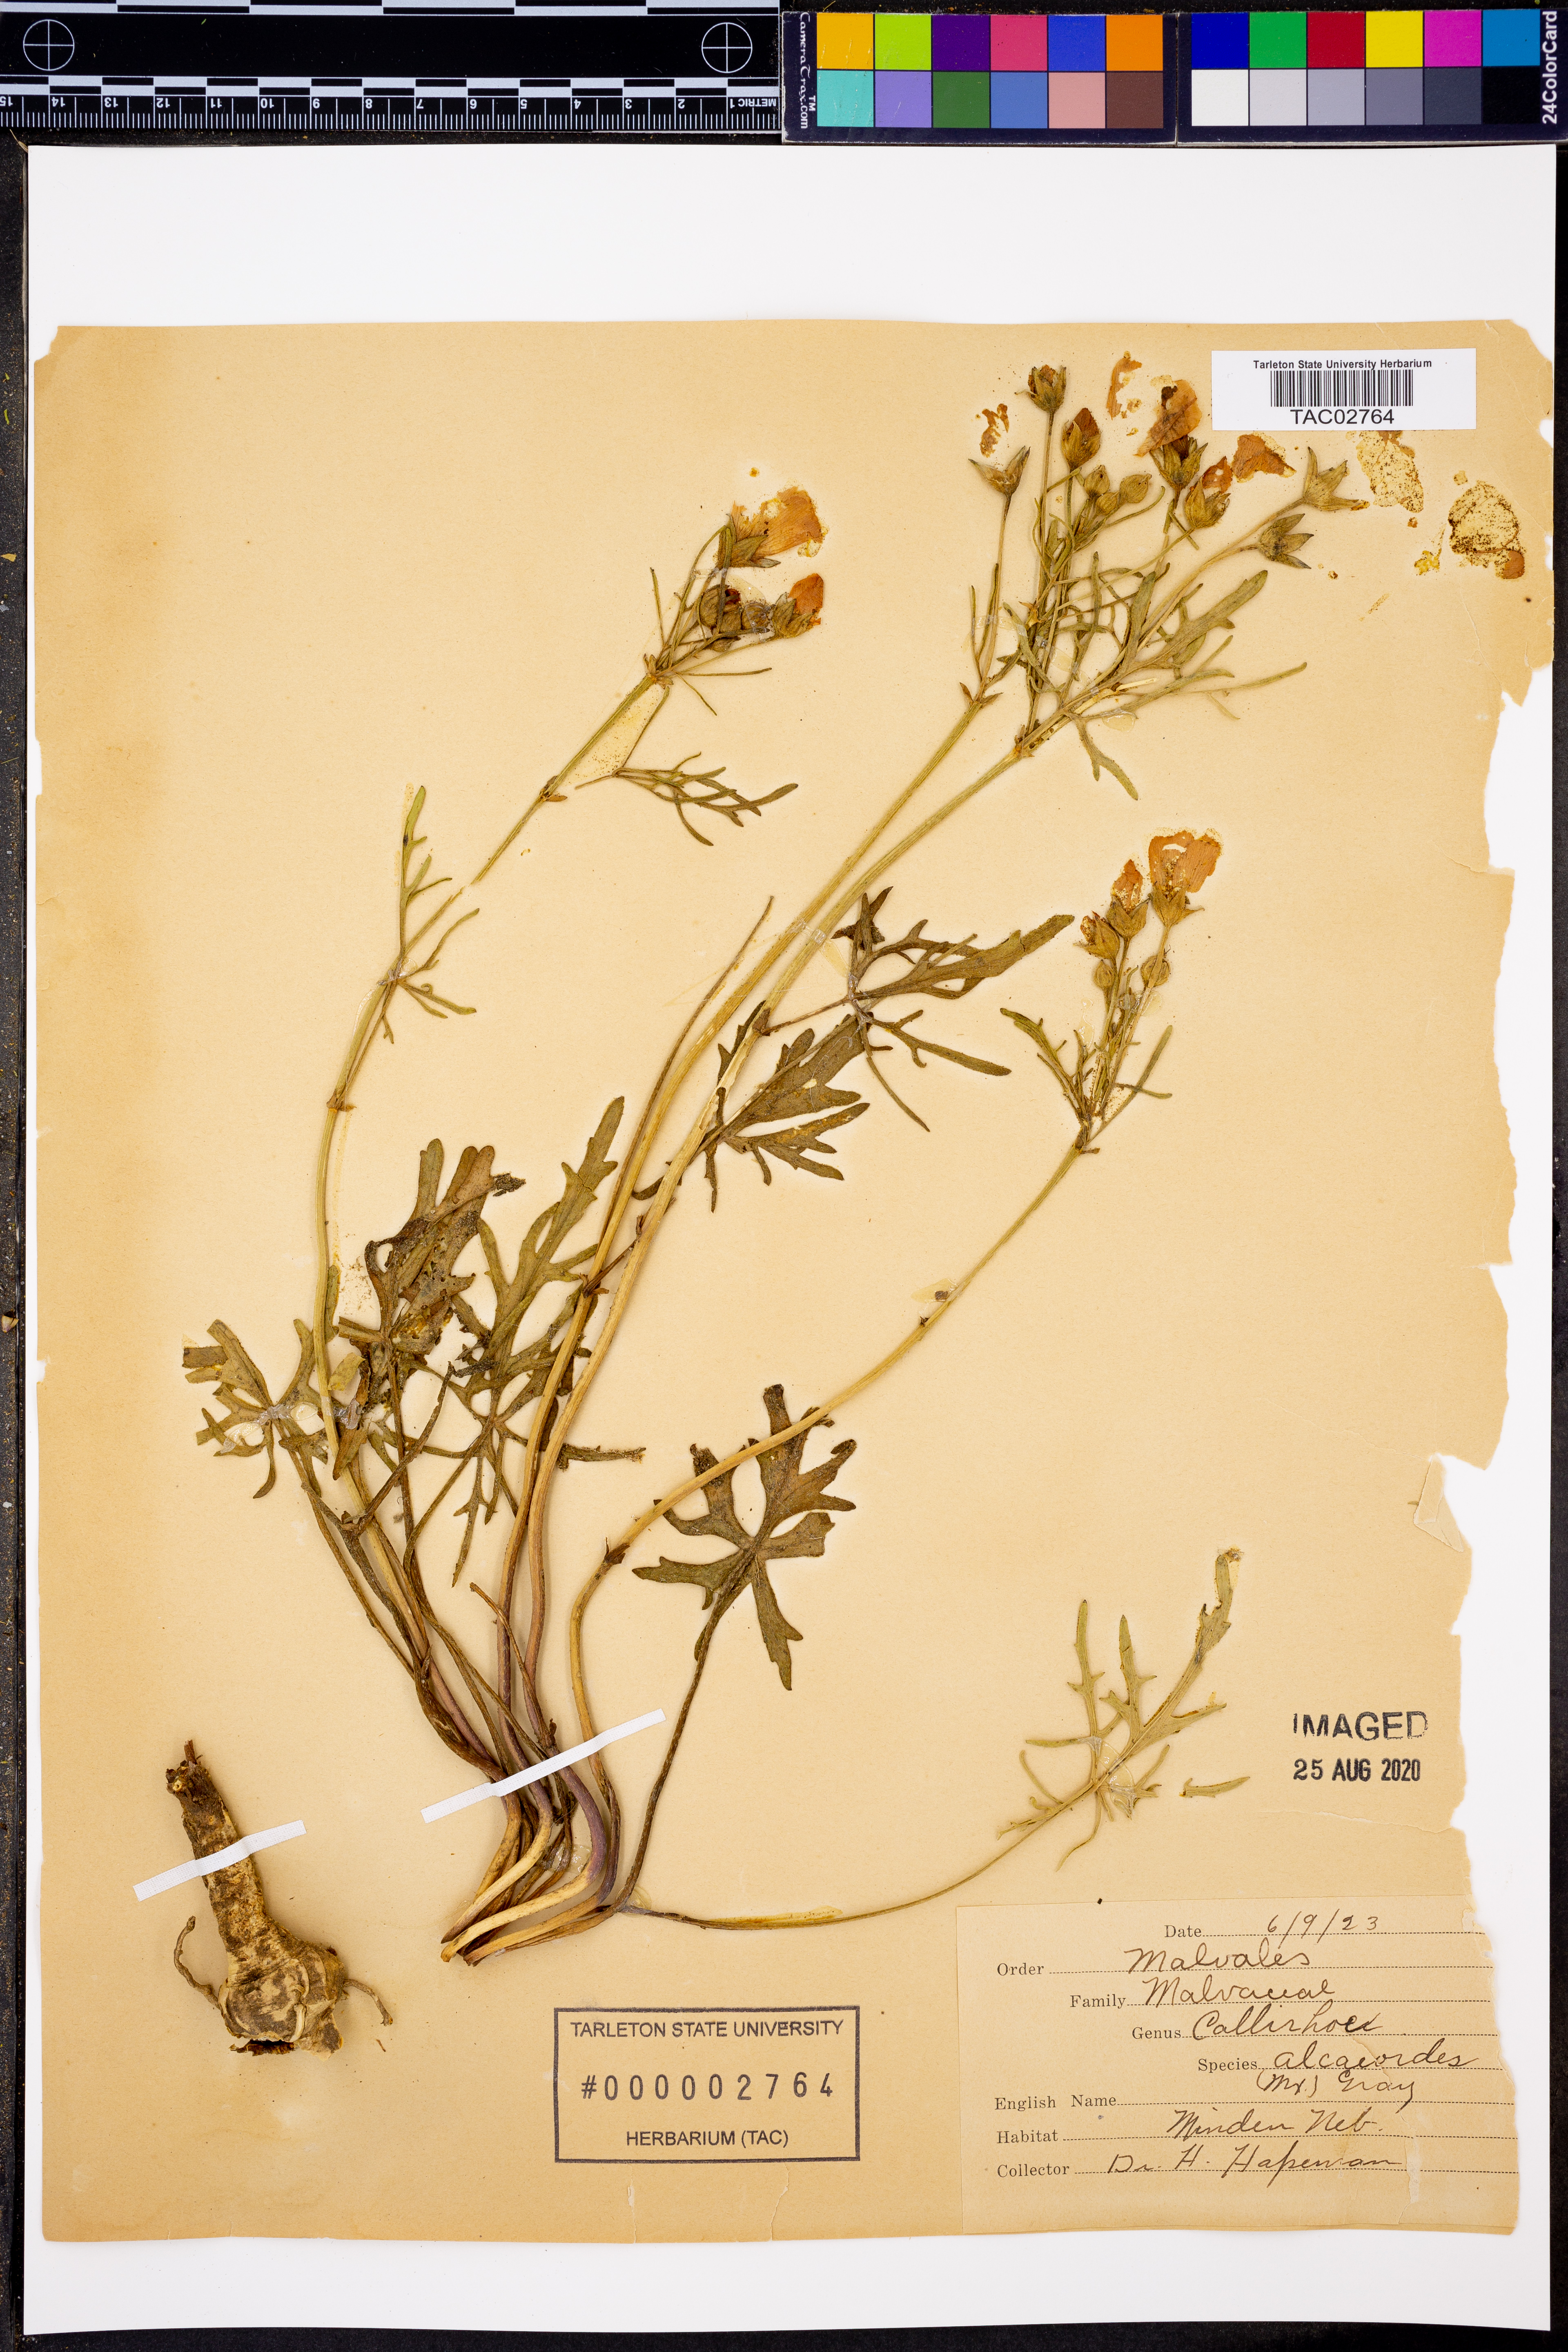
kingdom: Plantae
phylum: Tracheophyta
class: Magnoliopsida
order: Malvales
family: Malvaceae
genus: Callirhoe
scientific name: Callirhoe alcaeoides
